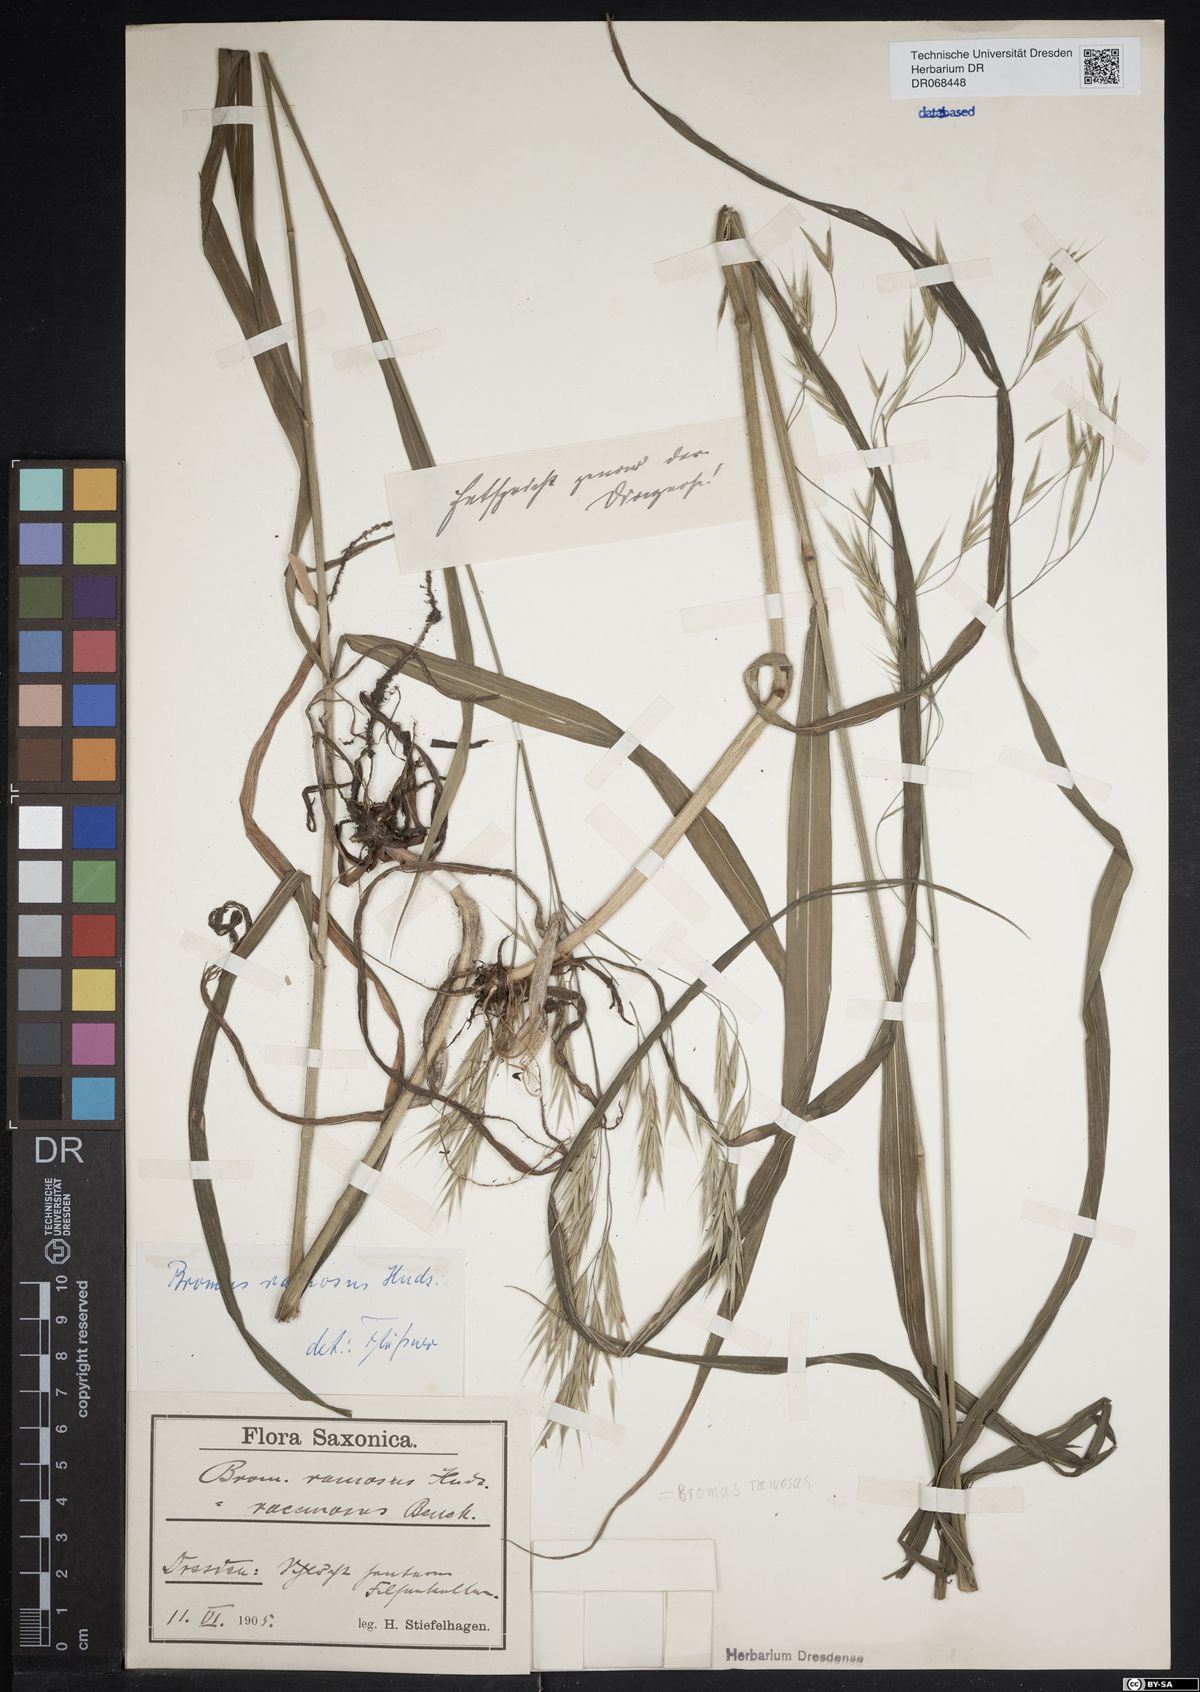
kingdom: Plantae
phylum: Tracheophyta
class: Liliopsida
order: Poales
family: Poaceae
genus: Bromus
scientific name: Bromus ramosus
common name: Hairy brome
